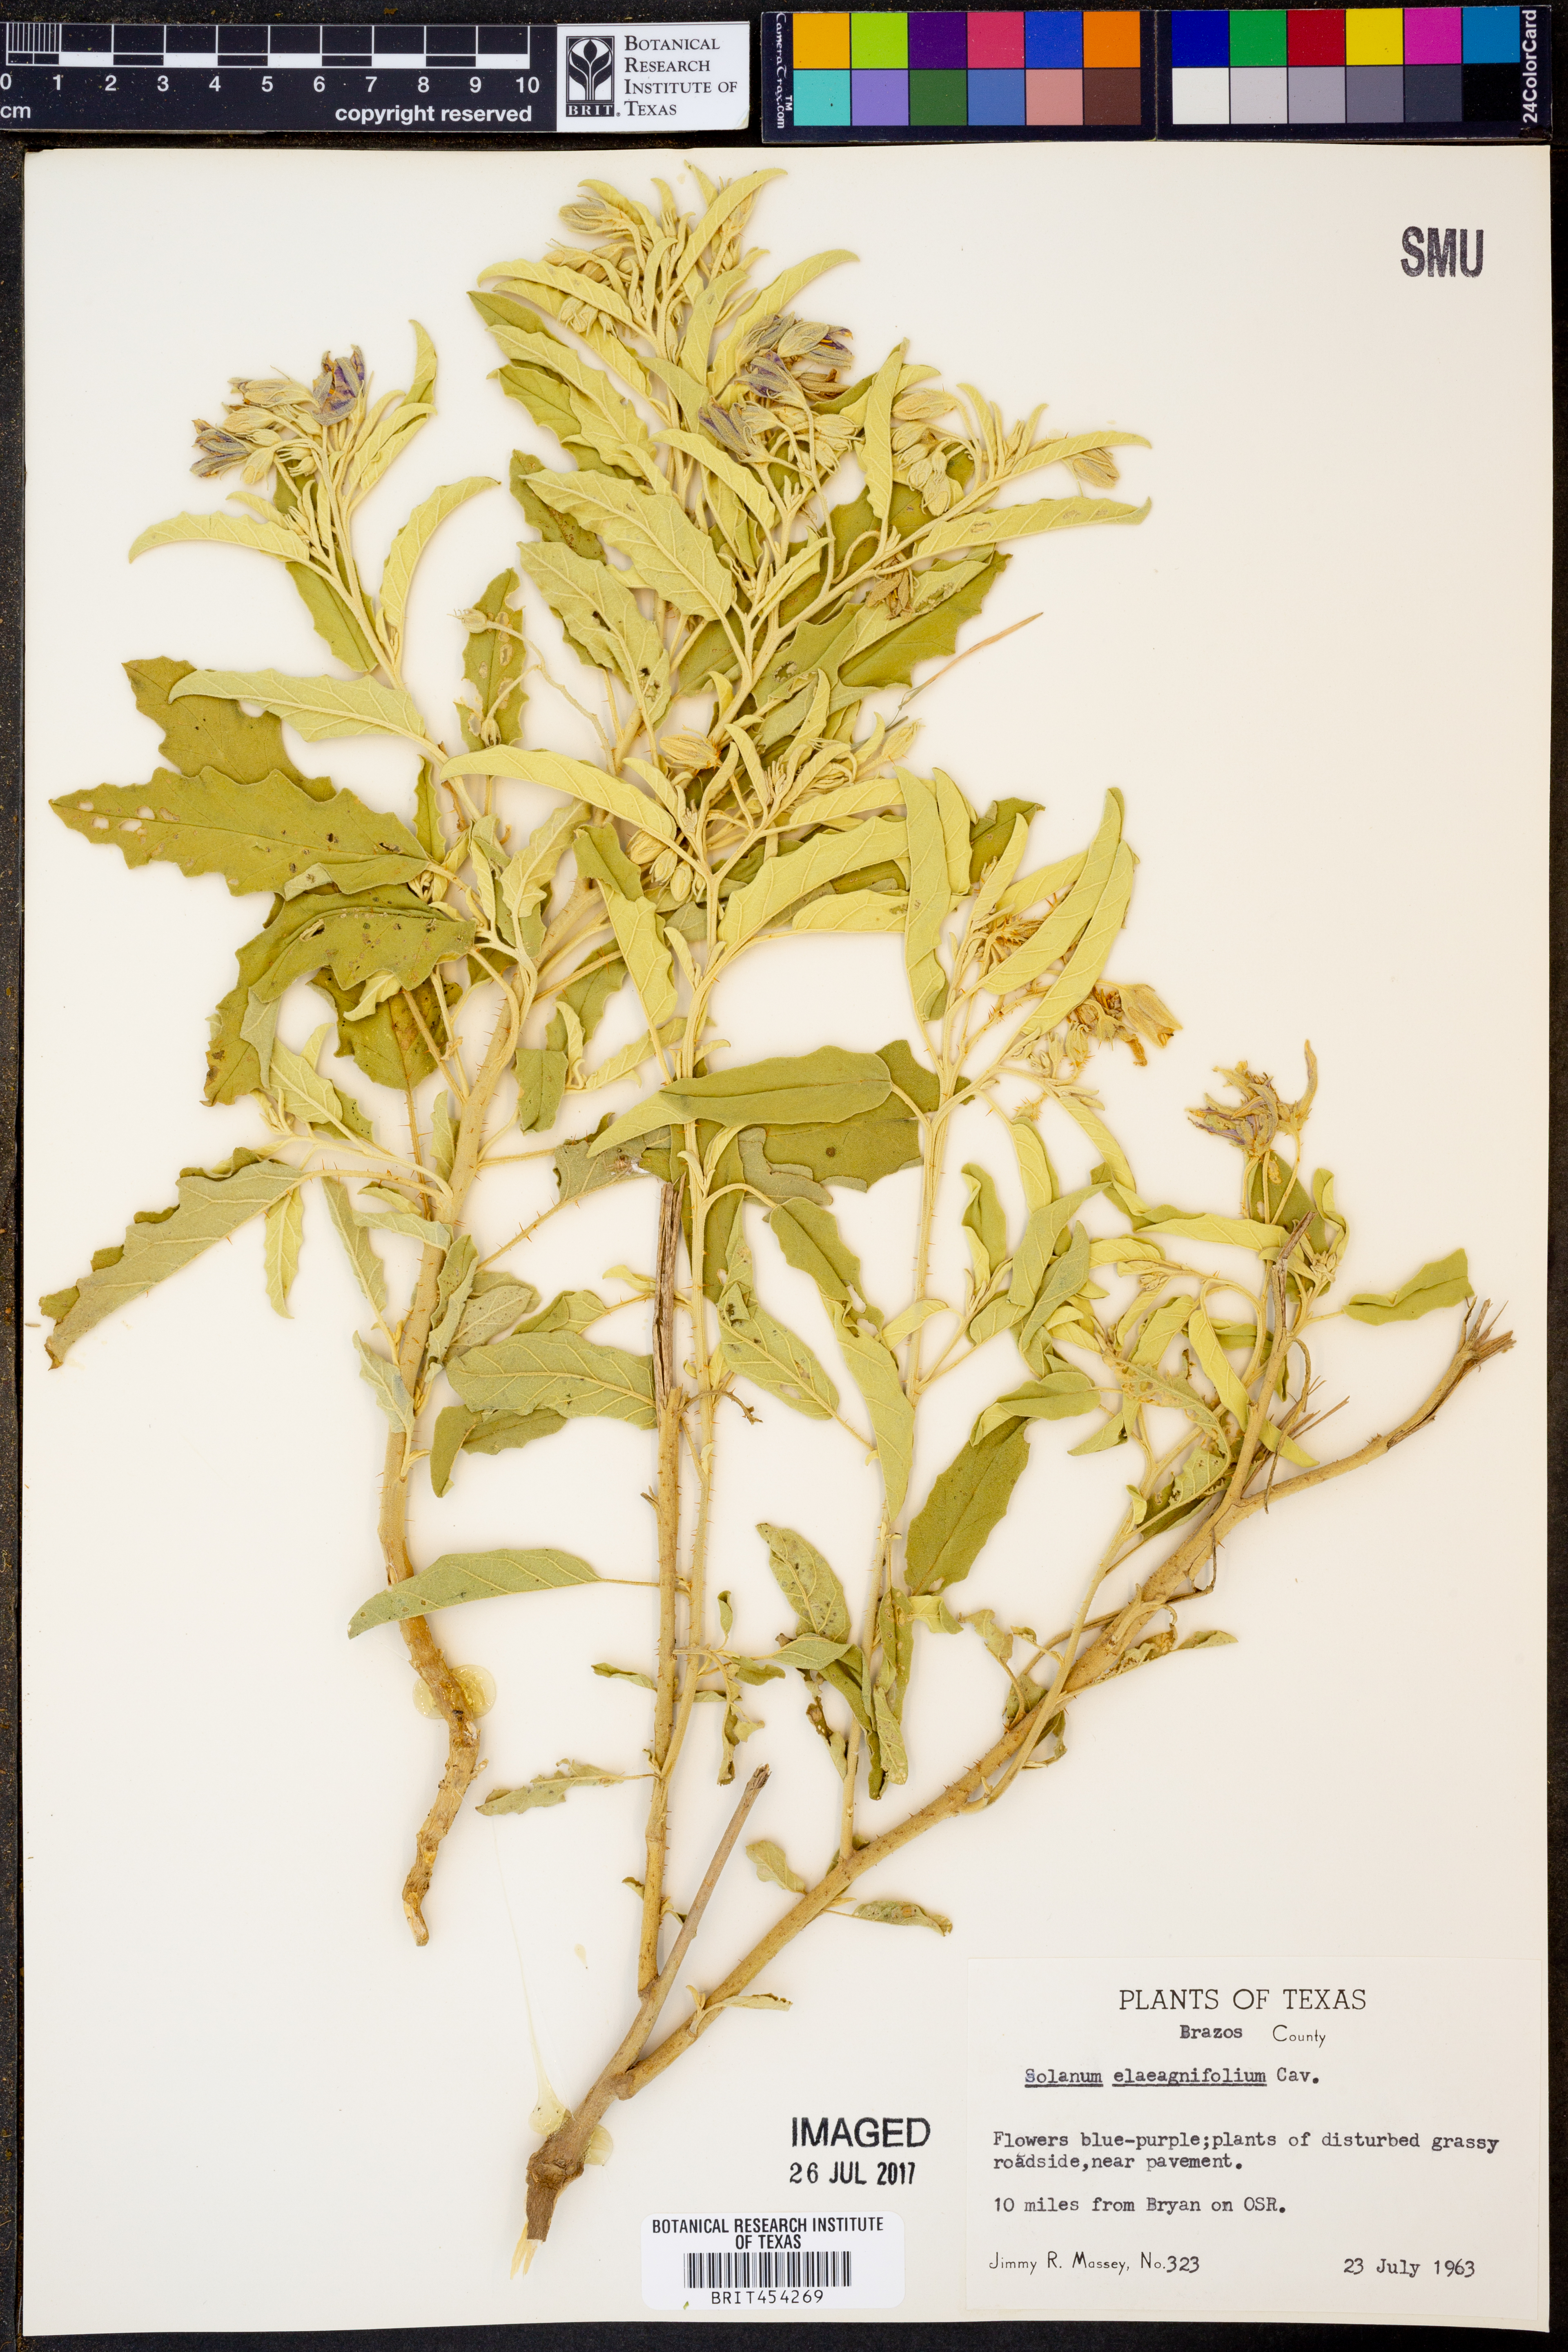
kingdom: Plantae
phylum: Tracheophyta
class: Magnoliopsida
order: Solanales
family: Solanaceae
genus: Solanum
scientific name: Solanum elaeagnifolium
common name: Silverleaf nightshade
